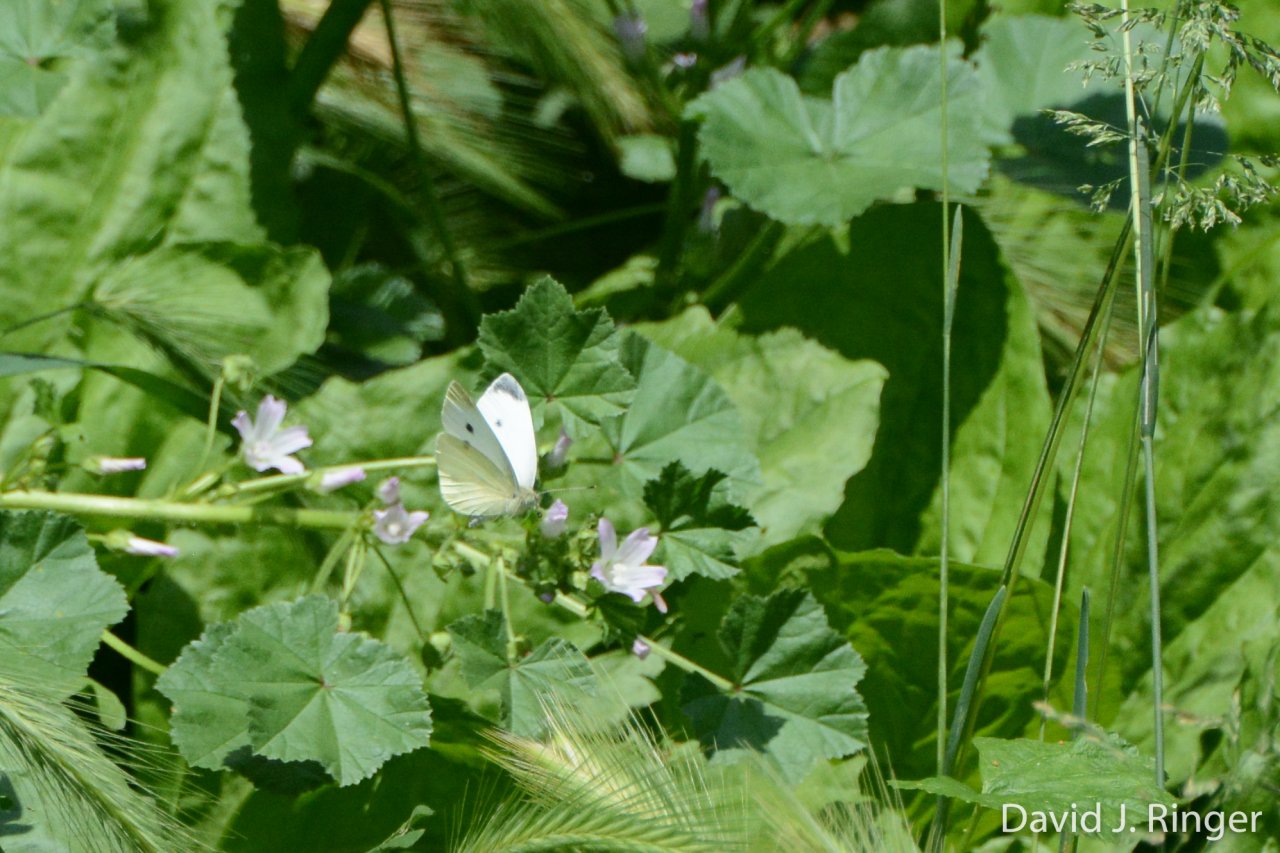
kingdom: Animalia
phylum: Arthropoda
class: Insecta
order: Lepidoptera
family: Pieridae
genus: Pieris
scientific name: Pieris rapae
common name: Cabbage White
